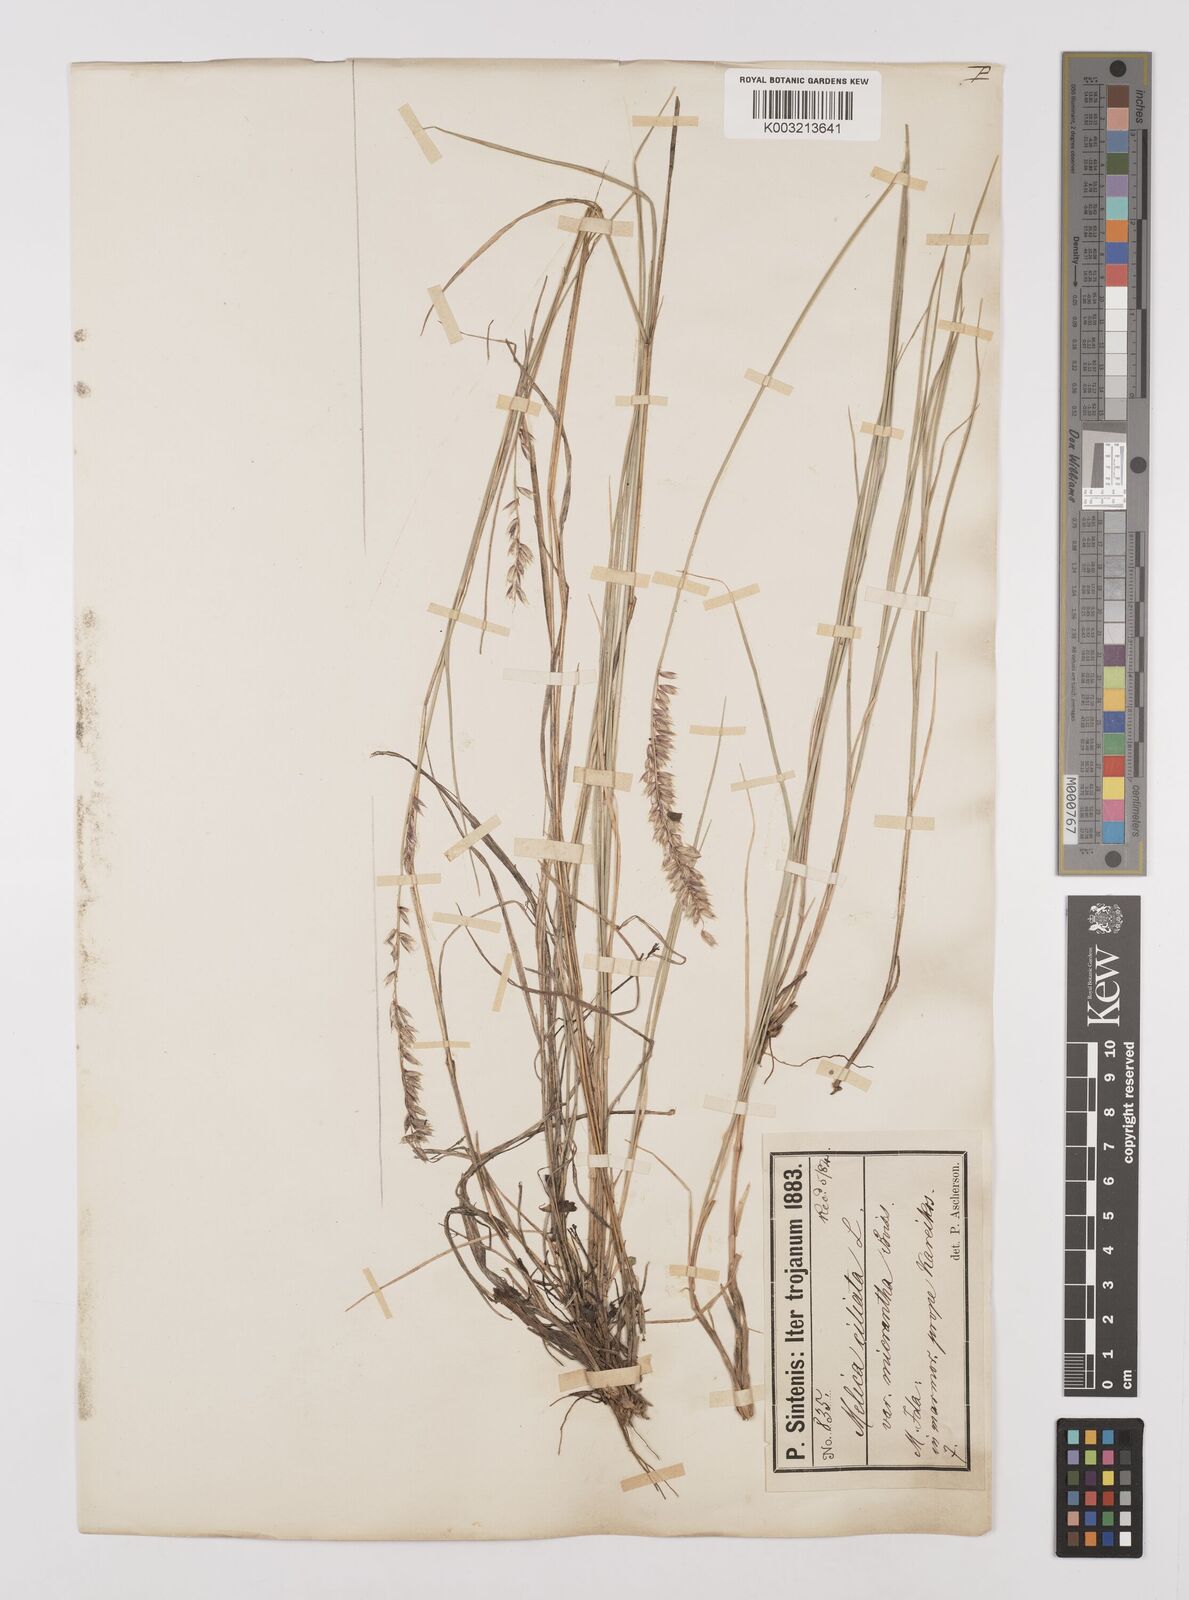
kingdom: Plantae
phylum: Tracheophyta
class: Liliopsida
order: Poales
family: Poaceae
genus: Melica
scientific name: Melica ciliata
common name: Hairy melicgrass
